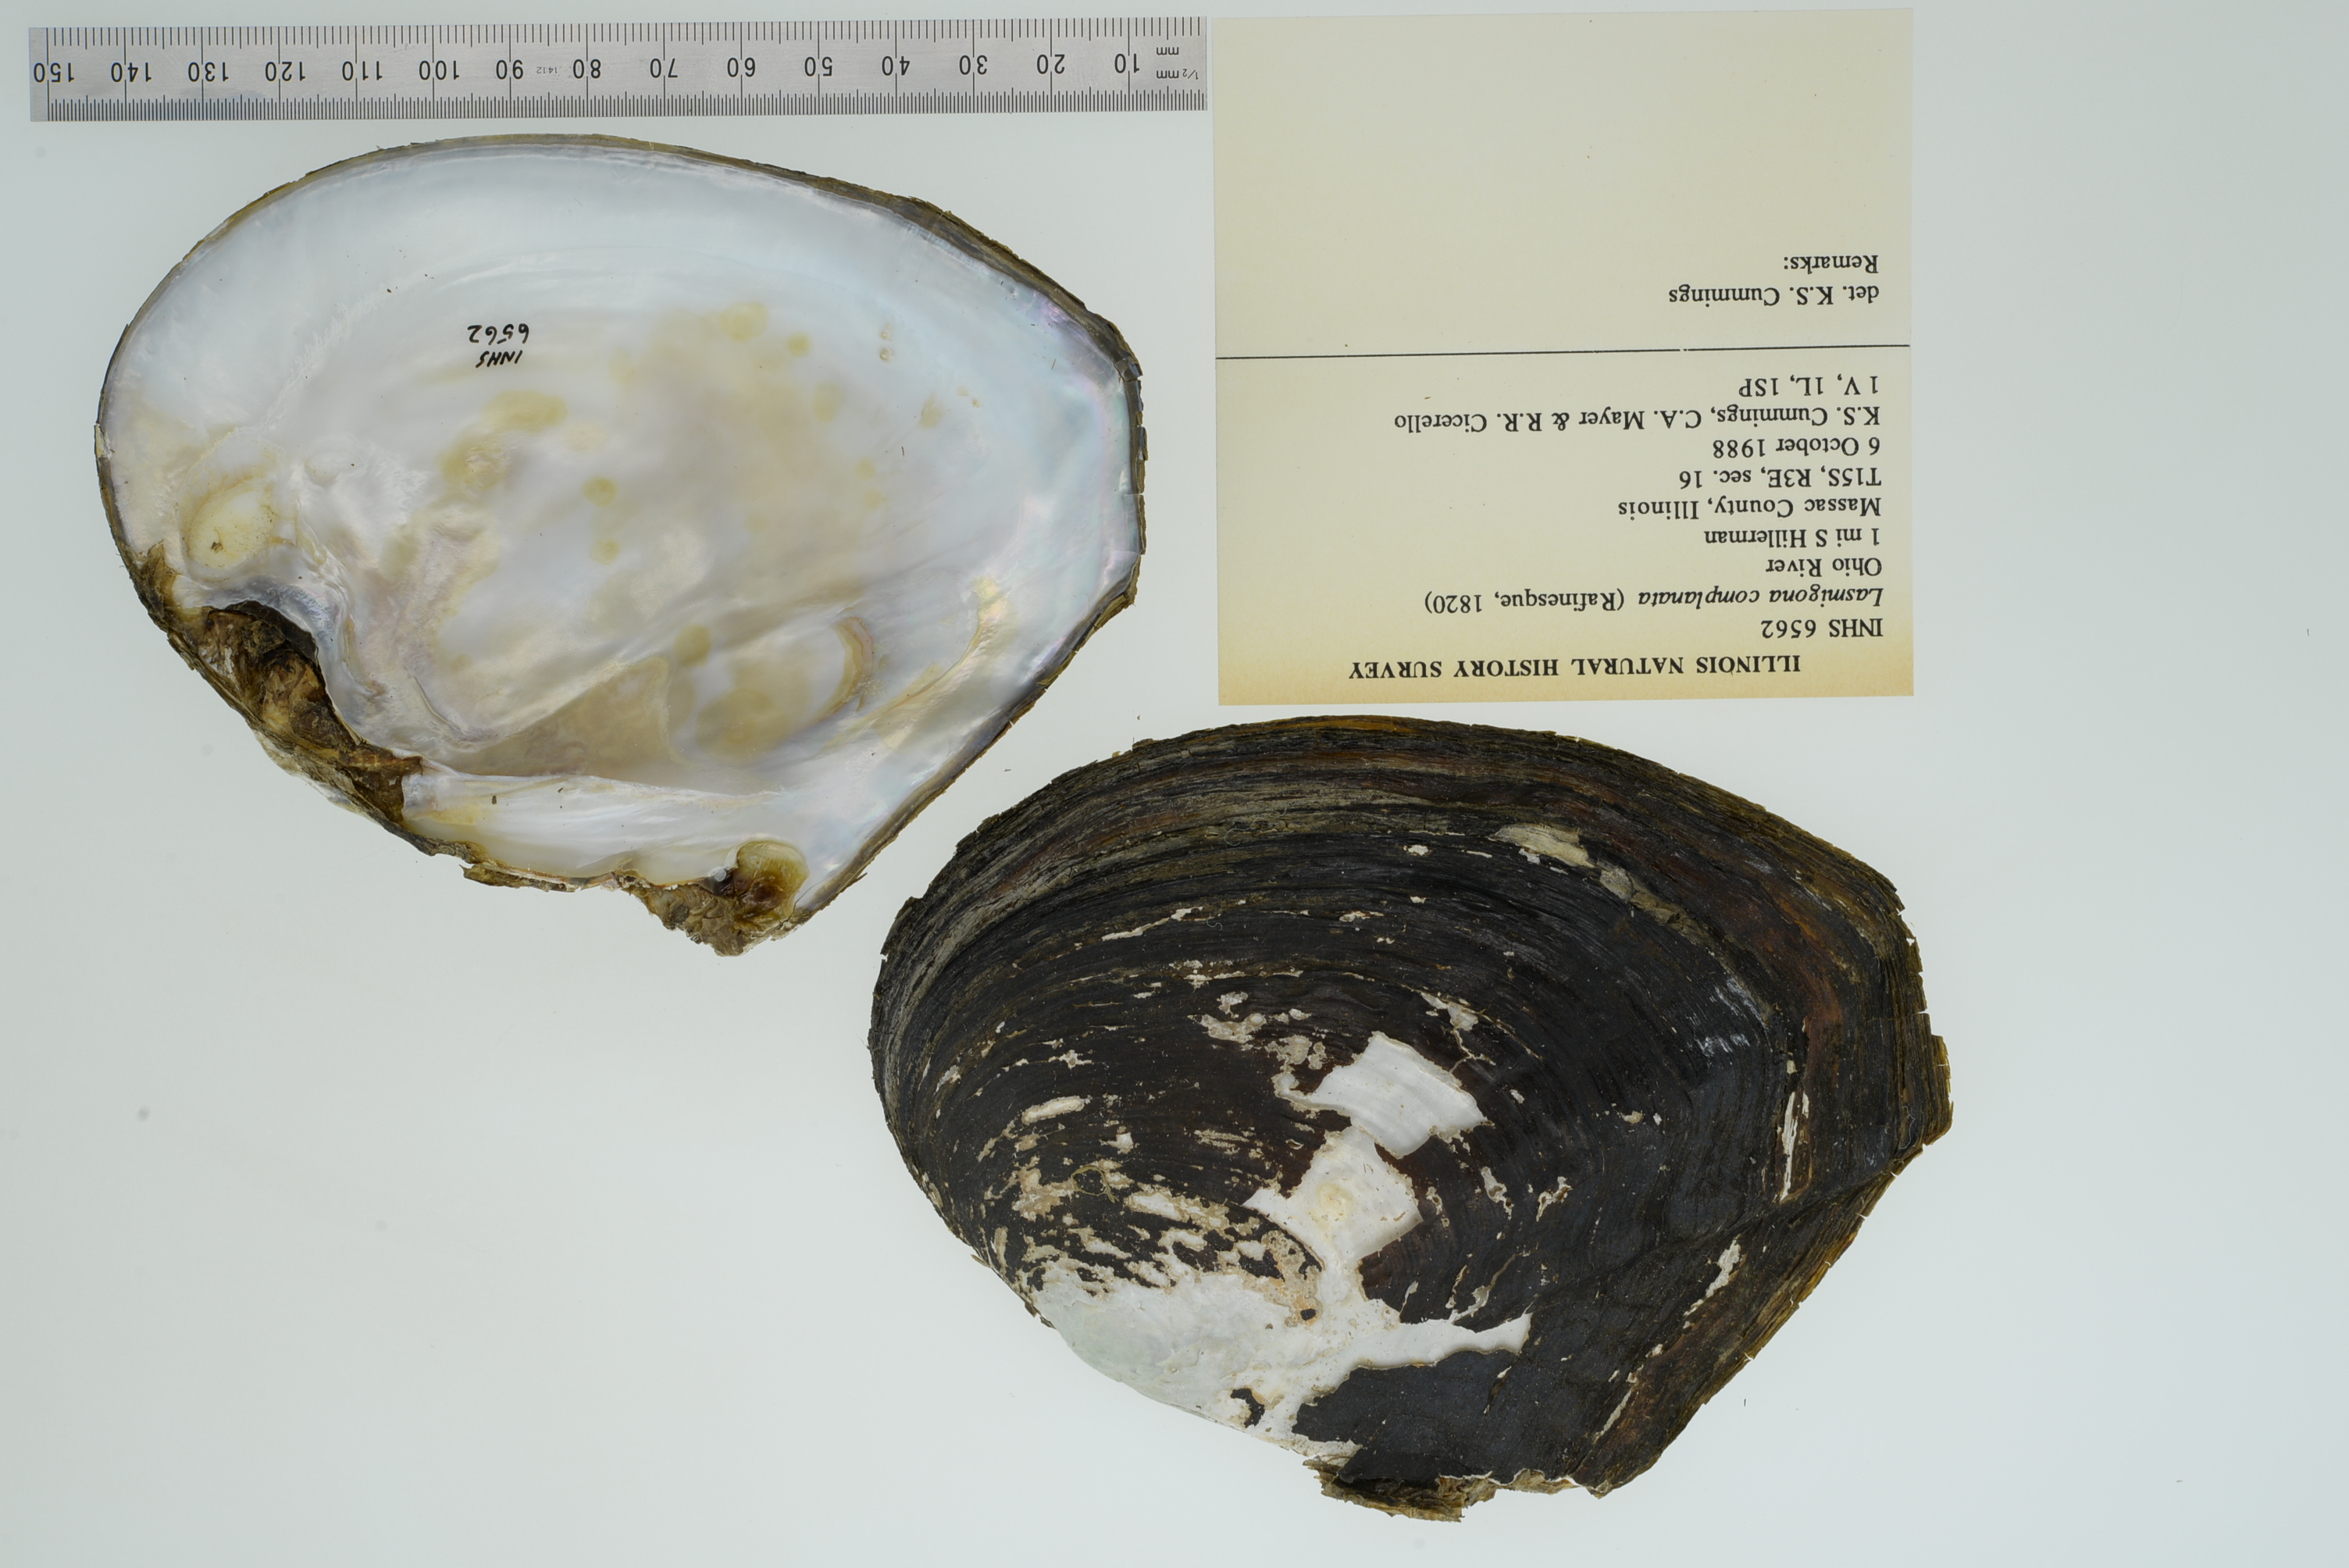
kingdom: Animalia
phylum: Mollusca
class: Bivalvia
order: Unionida
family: Unionidae
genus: Lasmigona
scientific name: Lasmigona complanata
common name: White heelsplitter
